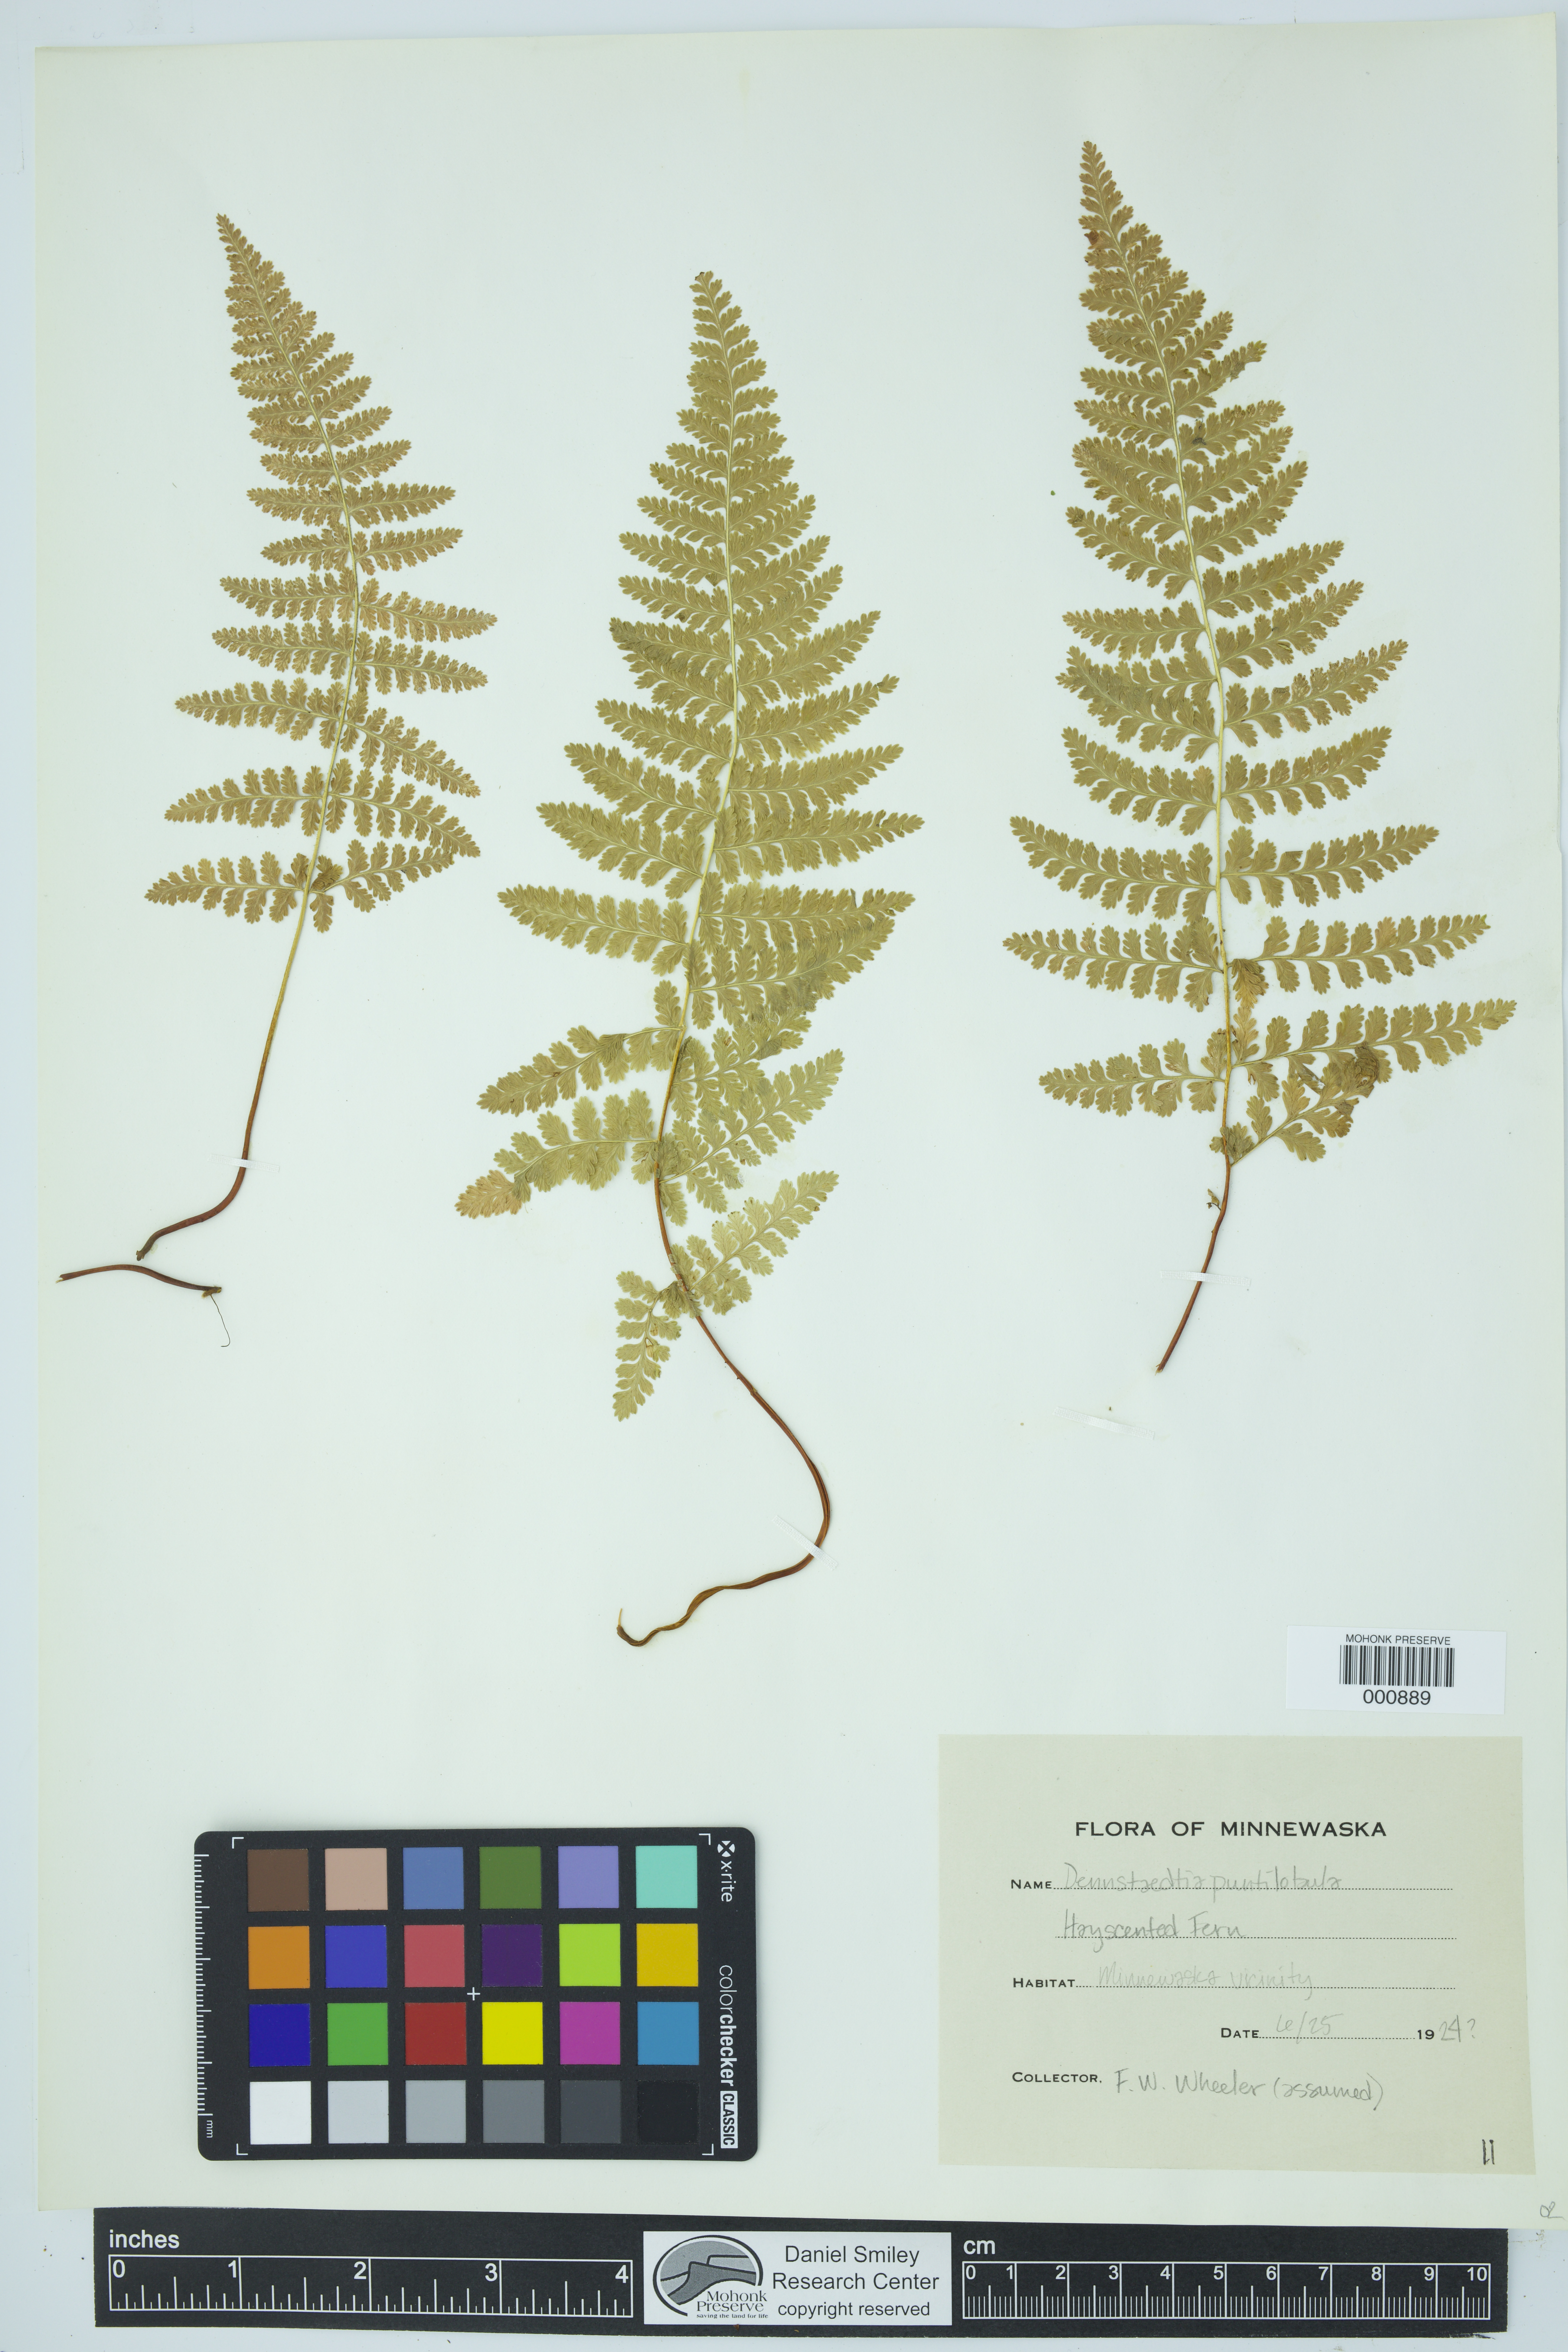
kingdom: Plantae
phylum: Tracheophyta
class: Polypodiopsida
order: Polypodiales
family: Dennstaedtiaceae
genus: Sitobolium
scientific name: Sitobolium punctilobum
